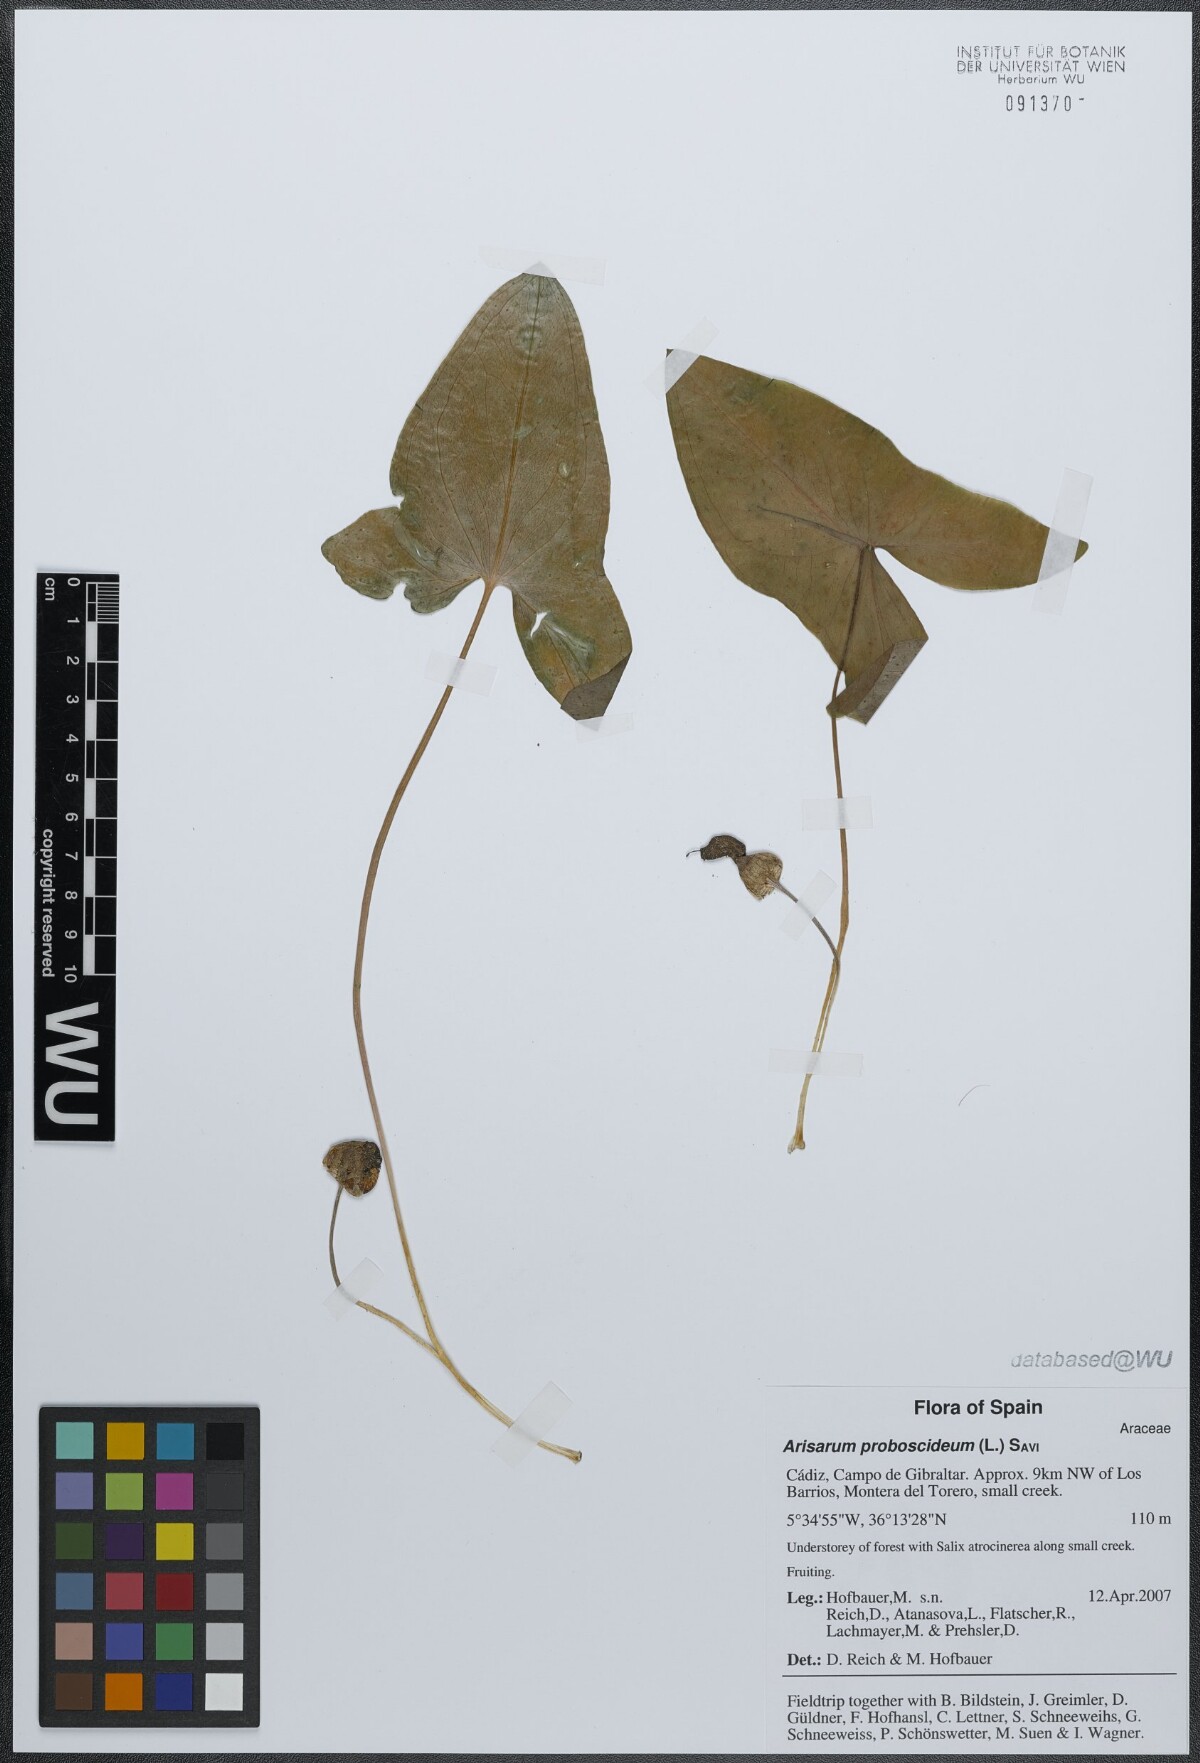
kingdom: Plantae
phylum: Tracheophyta
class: Liliopsida
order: Alismatales
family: Araceae
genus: Arisarum
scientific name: Arisarum proboscideum
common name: Mousetailplant
